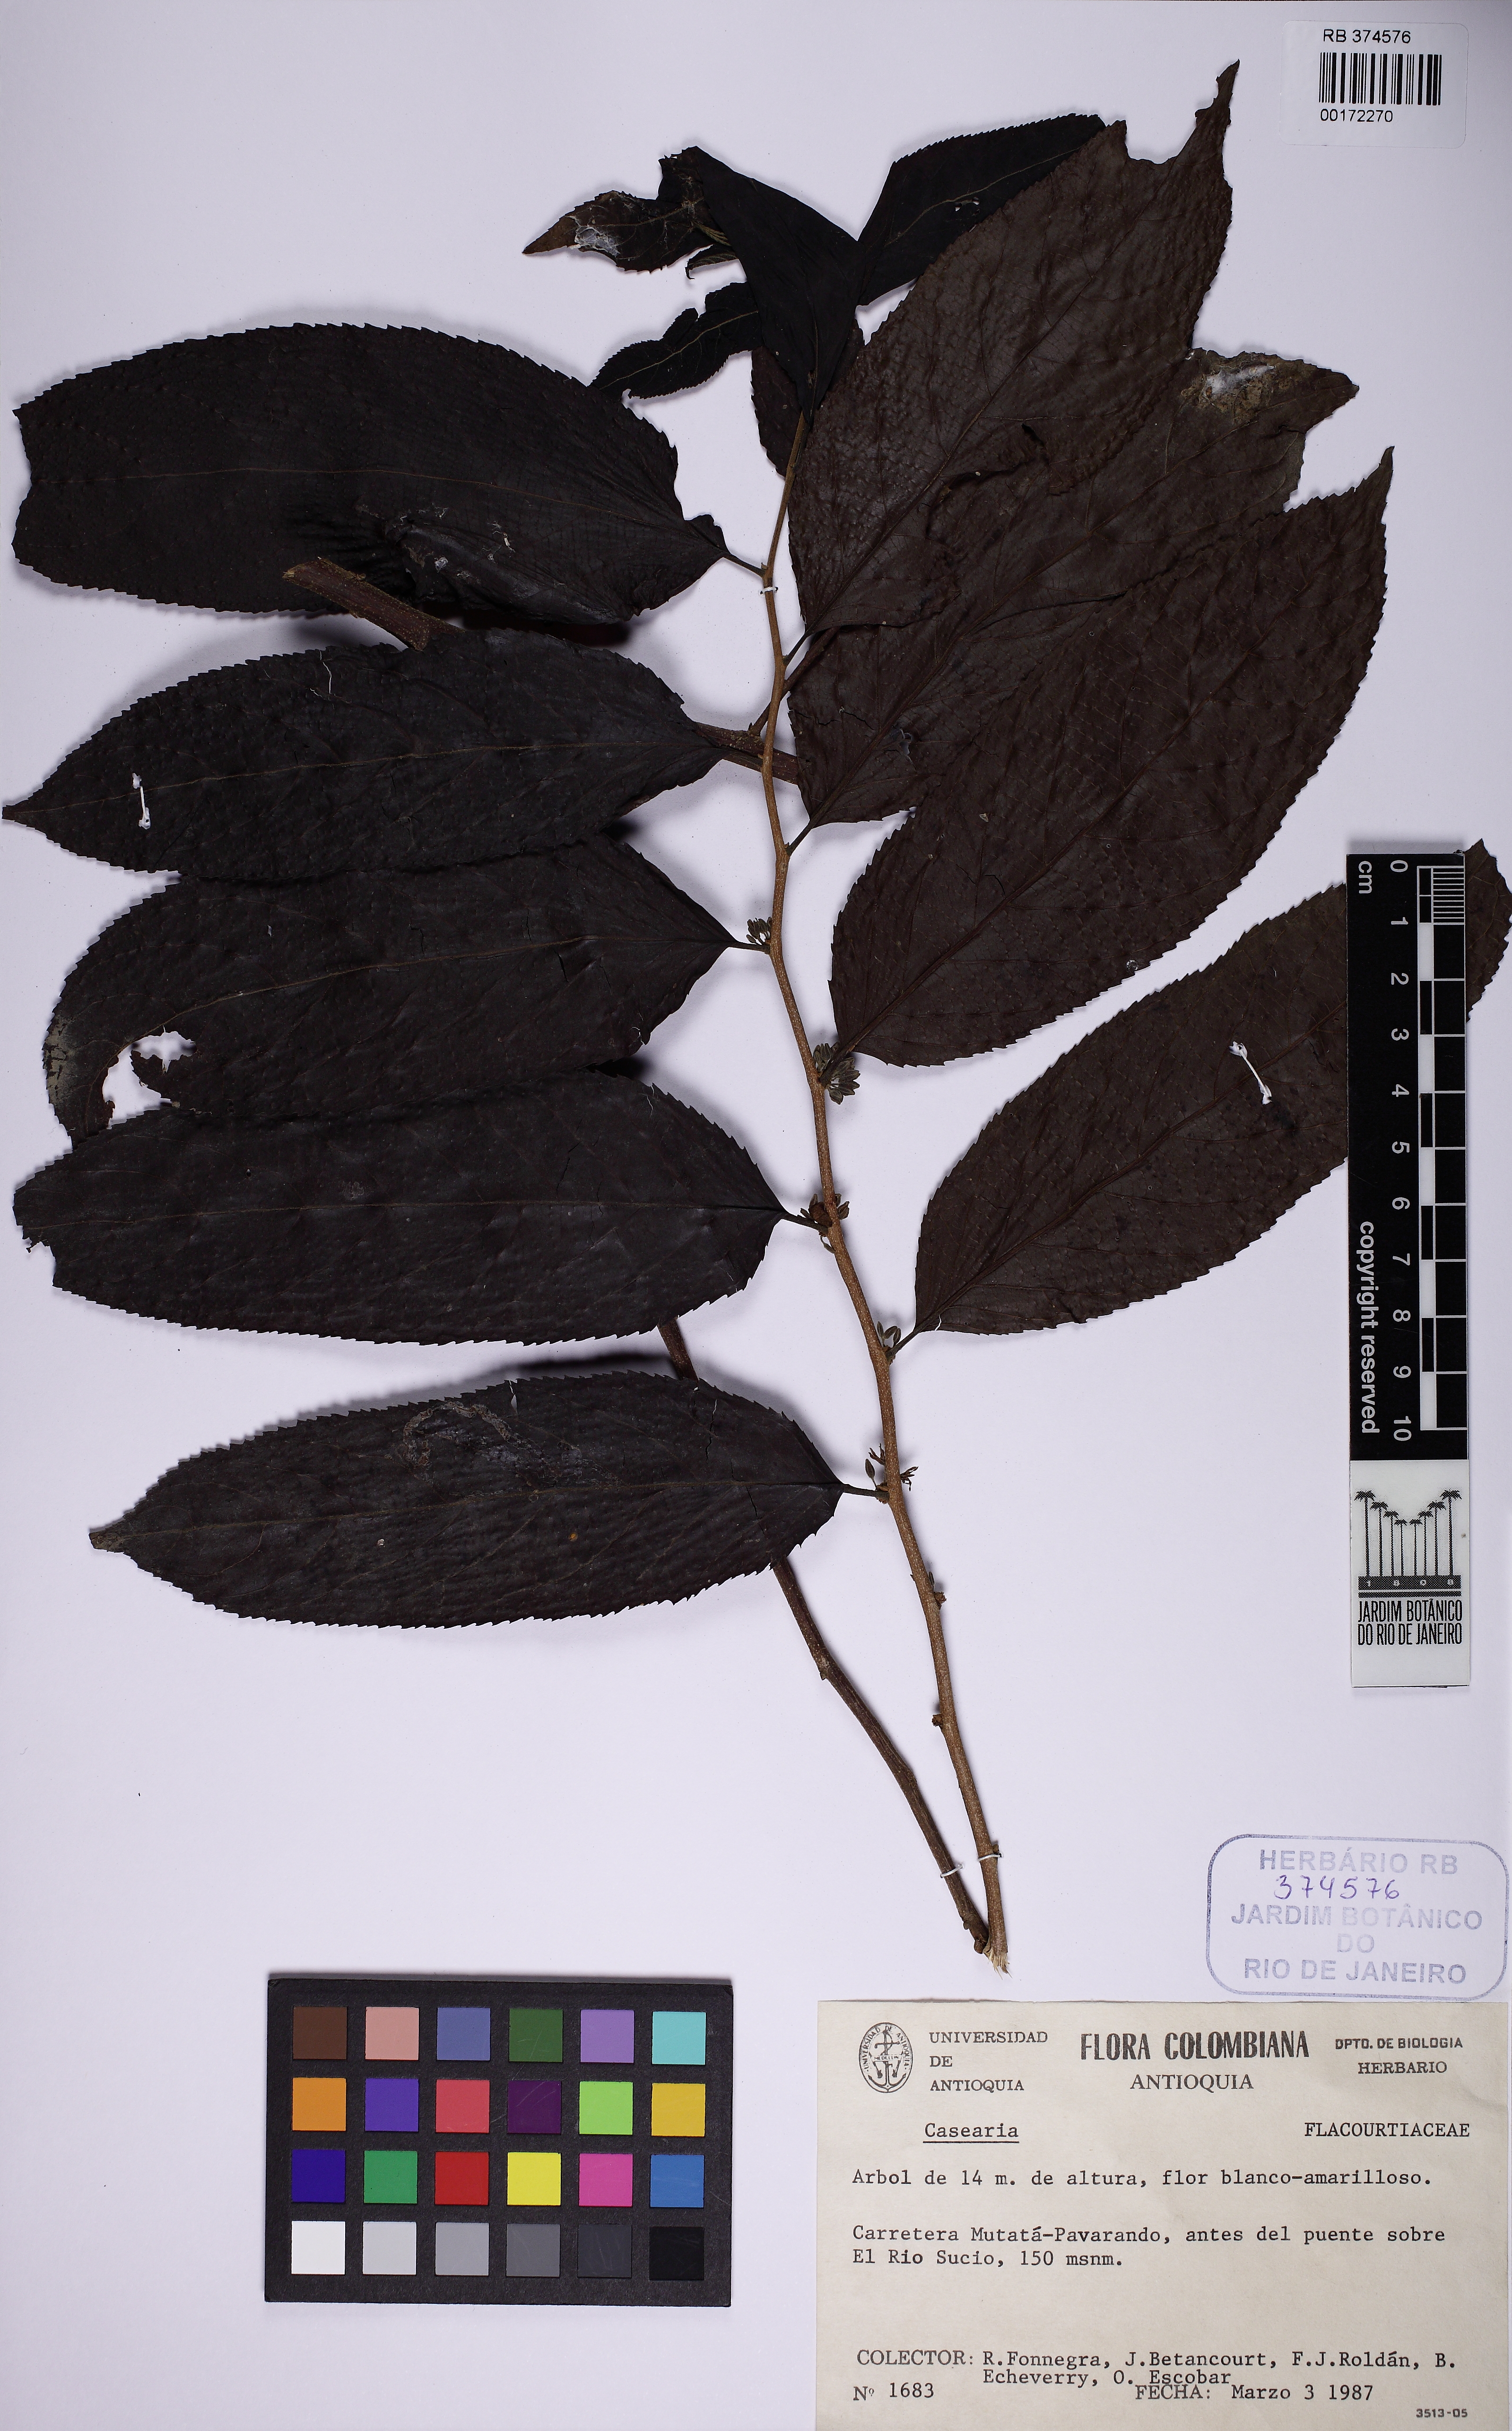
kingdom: Plantae
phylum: Tracheophyta
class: Magnoliopsida
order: Malpighiales
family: Salicaceae
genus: Casearia
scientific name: Casearia
